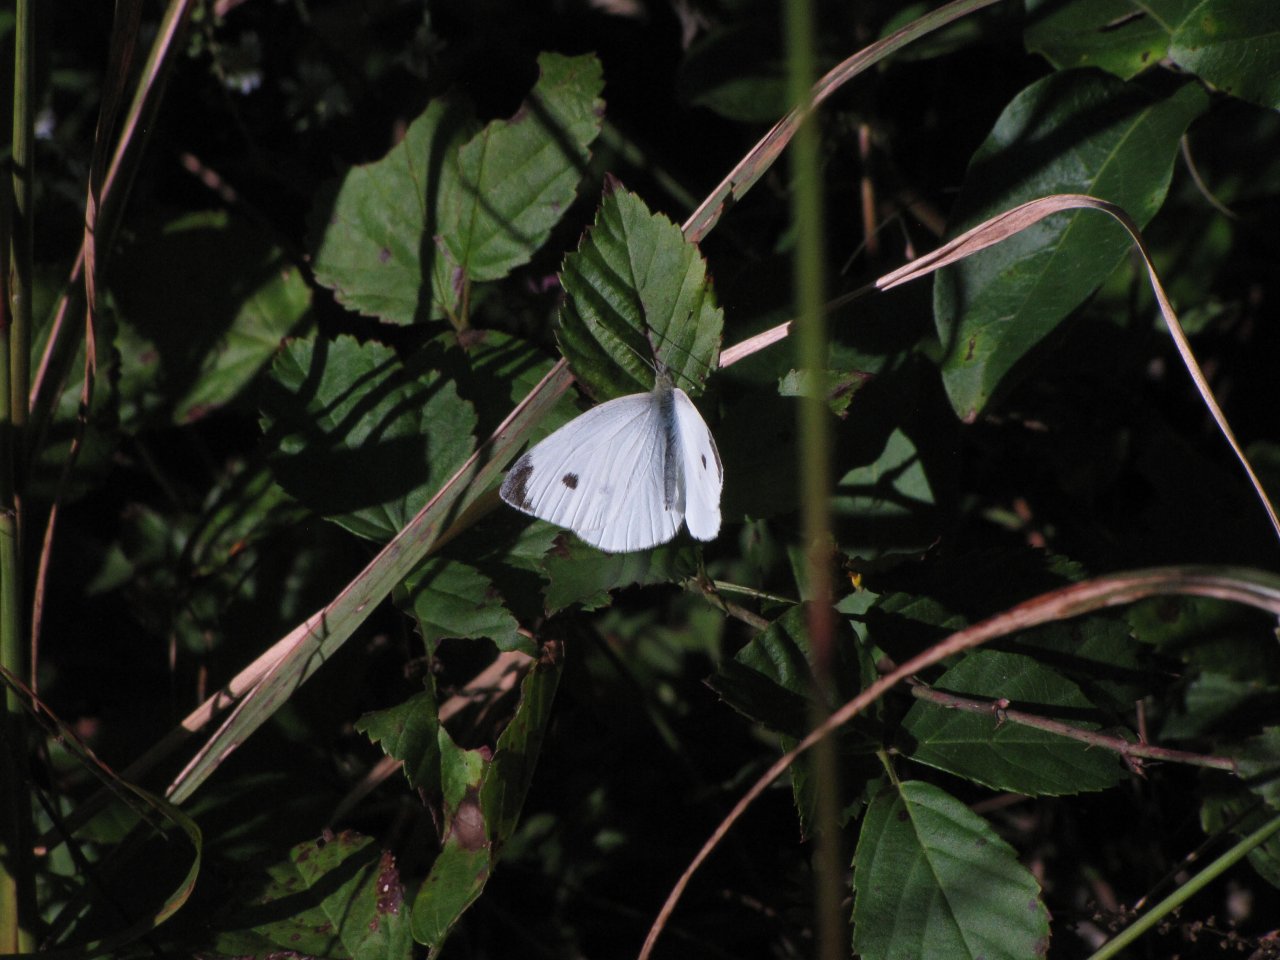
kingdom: Animalia
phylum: Arthropoda
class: Insecta
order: Lepidoptera
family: Pieridae
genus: Pieris
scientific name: Pieris rapae
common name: Cabbage White
